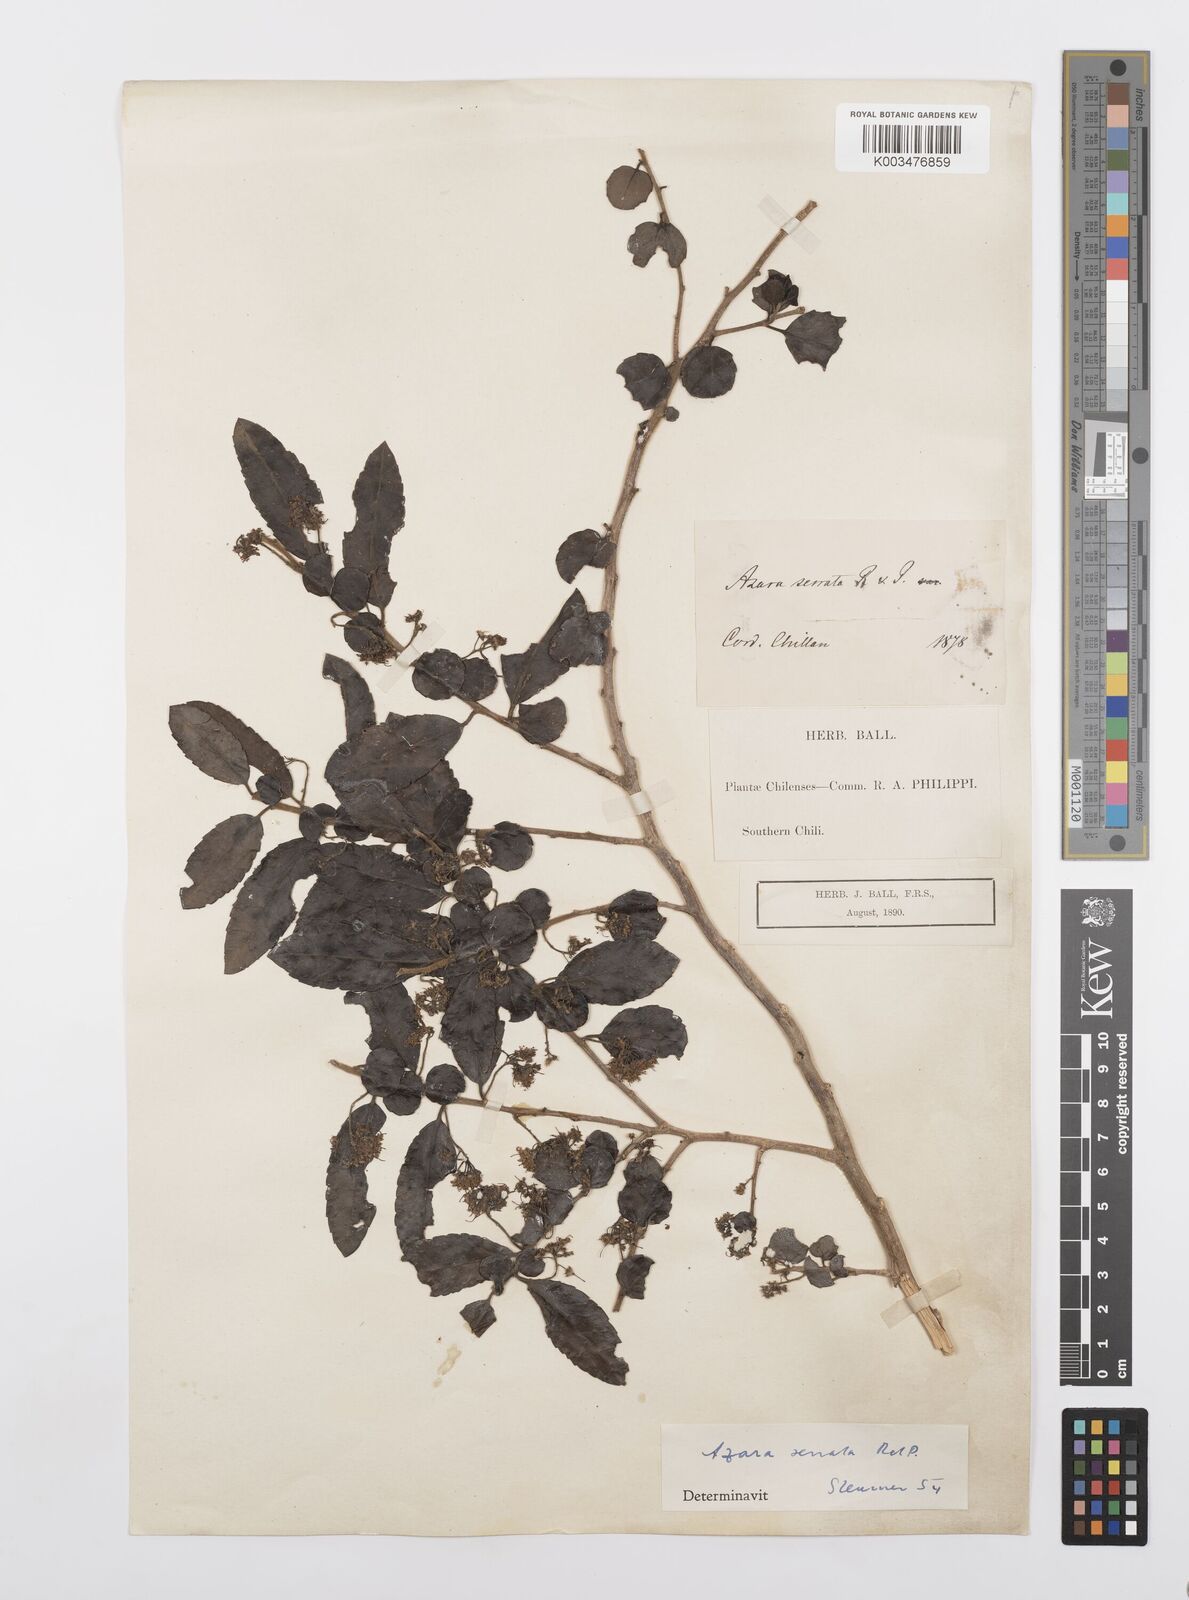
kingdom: Plantae
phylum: Tracheophyta
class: Magnoliopsida
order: Malpighiales
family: Salicaceae
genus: Azara
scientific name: Azara serrata
